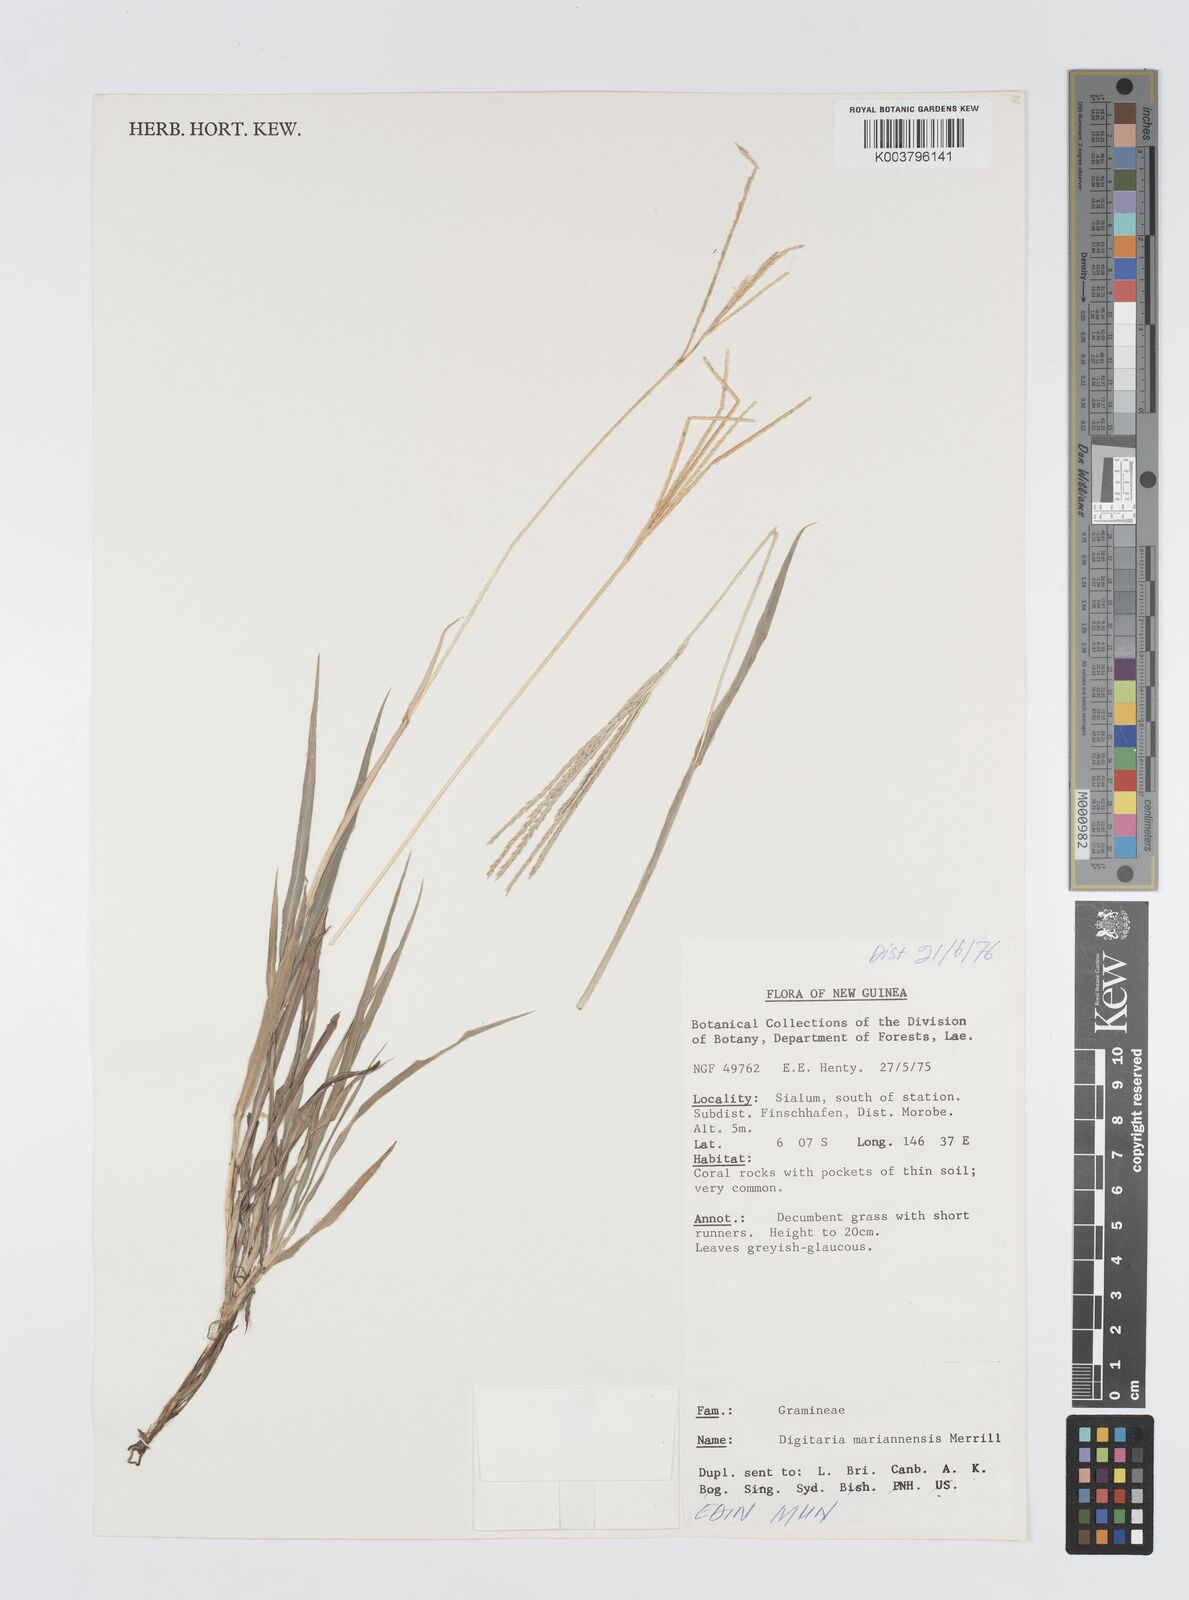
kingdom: Plantae
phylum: Tracheophyta
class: Liliopsida
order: Poales
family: Poaceae
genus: Digitaria
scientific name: Digitaria mariannensis
